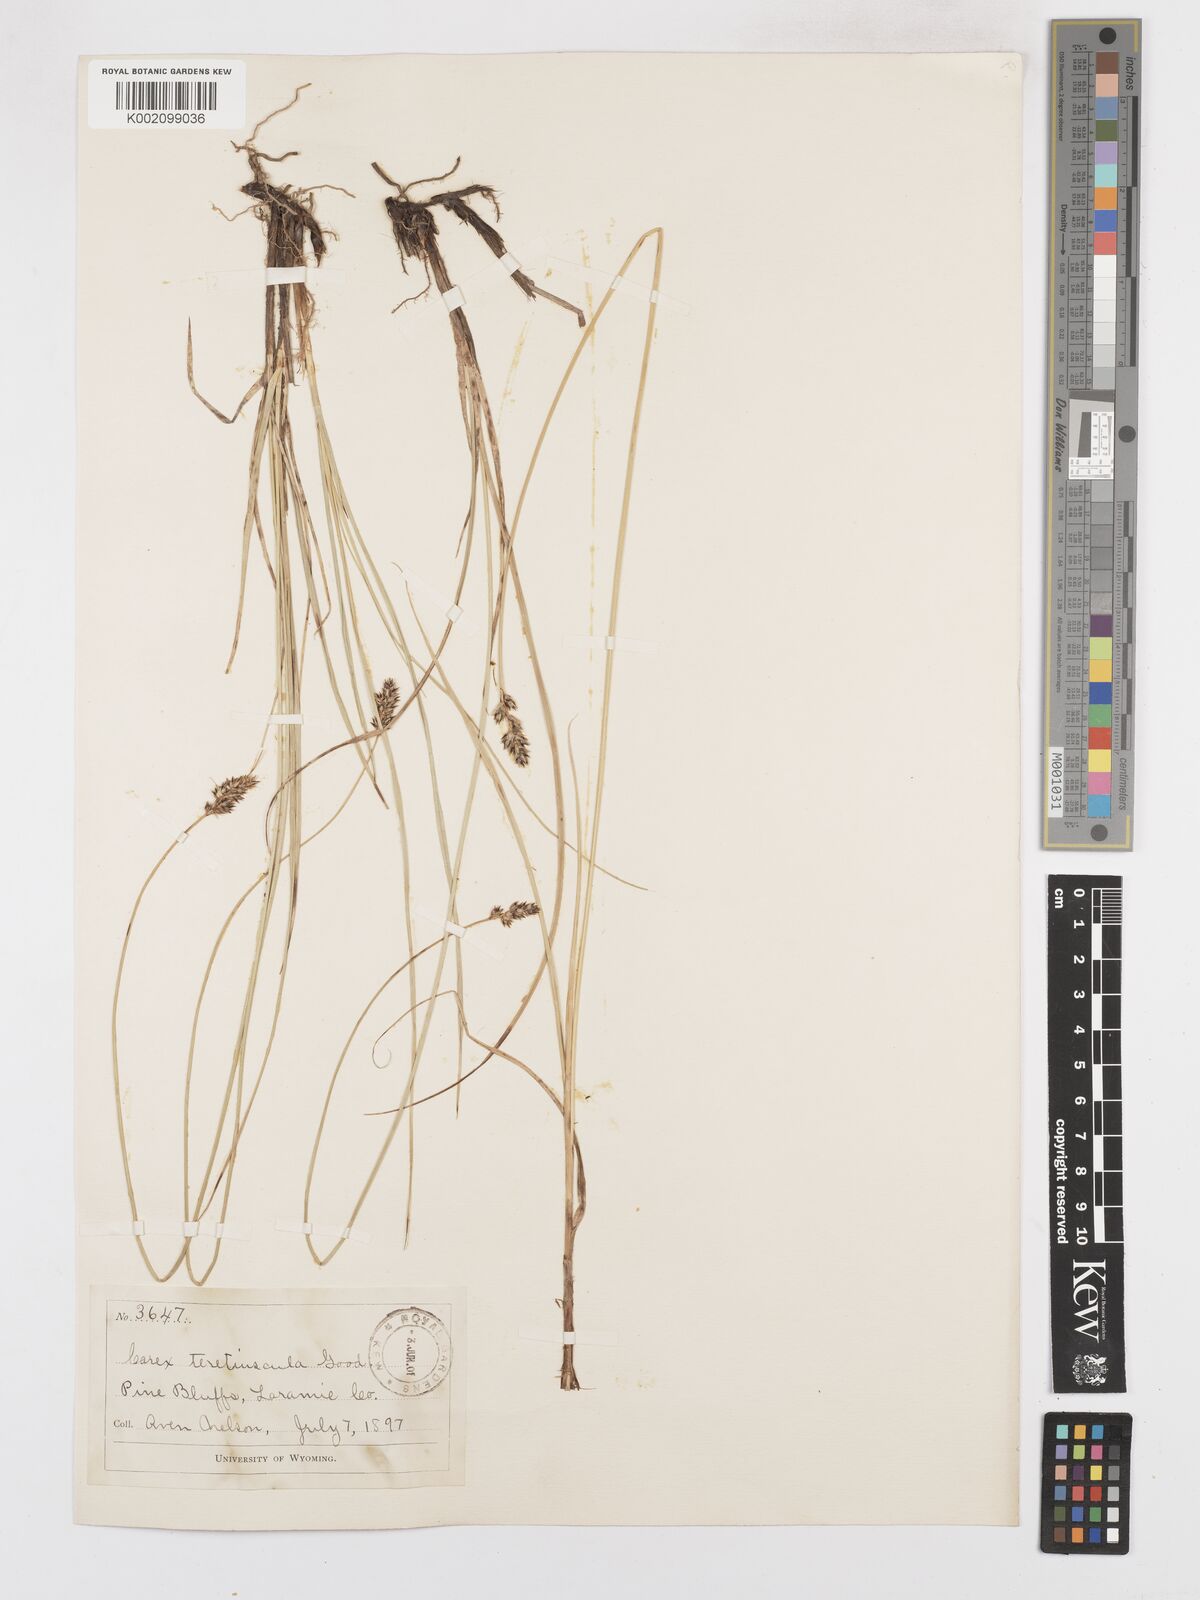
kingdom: Plantae
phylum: Tracheophyta
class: Liliopsida
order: Poales
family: Cyperaceae
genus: Carex
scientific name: Carex diandra
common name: Lesser tussock-sedge
